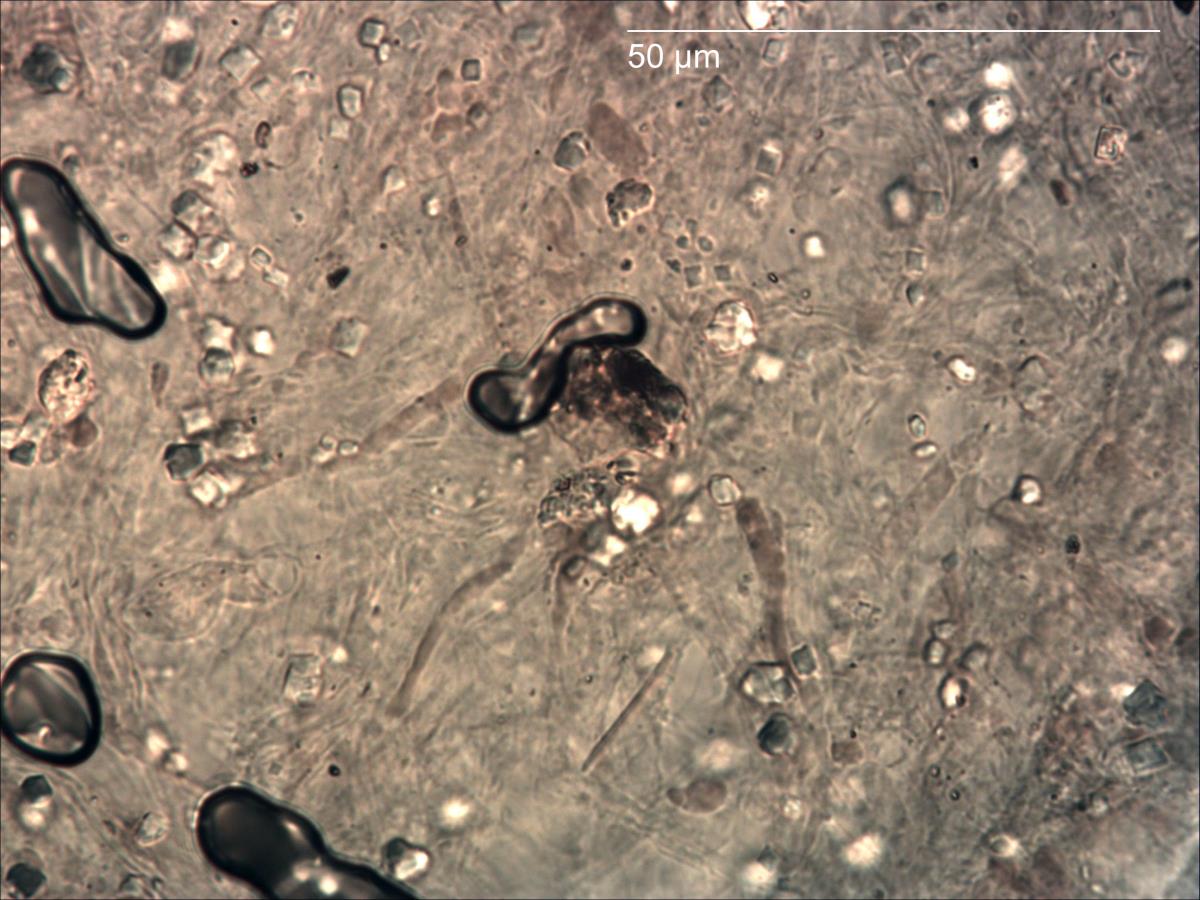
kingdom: Fungi
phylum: Basidiomycota
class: Agaricomycetes
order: Agaricales
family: Marasmiaceae
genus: Gerronema
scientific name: Gerronema
